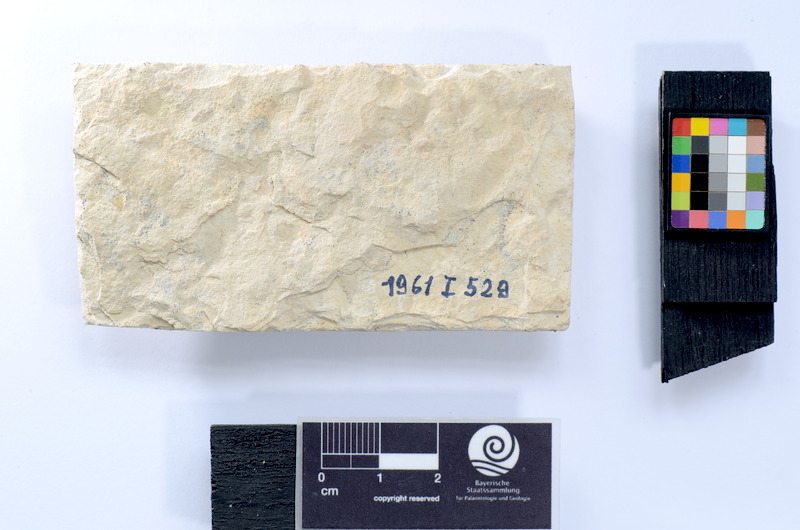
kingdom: Animalia
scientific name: Animalia
